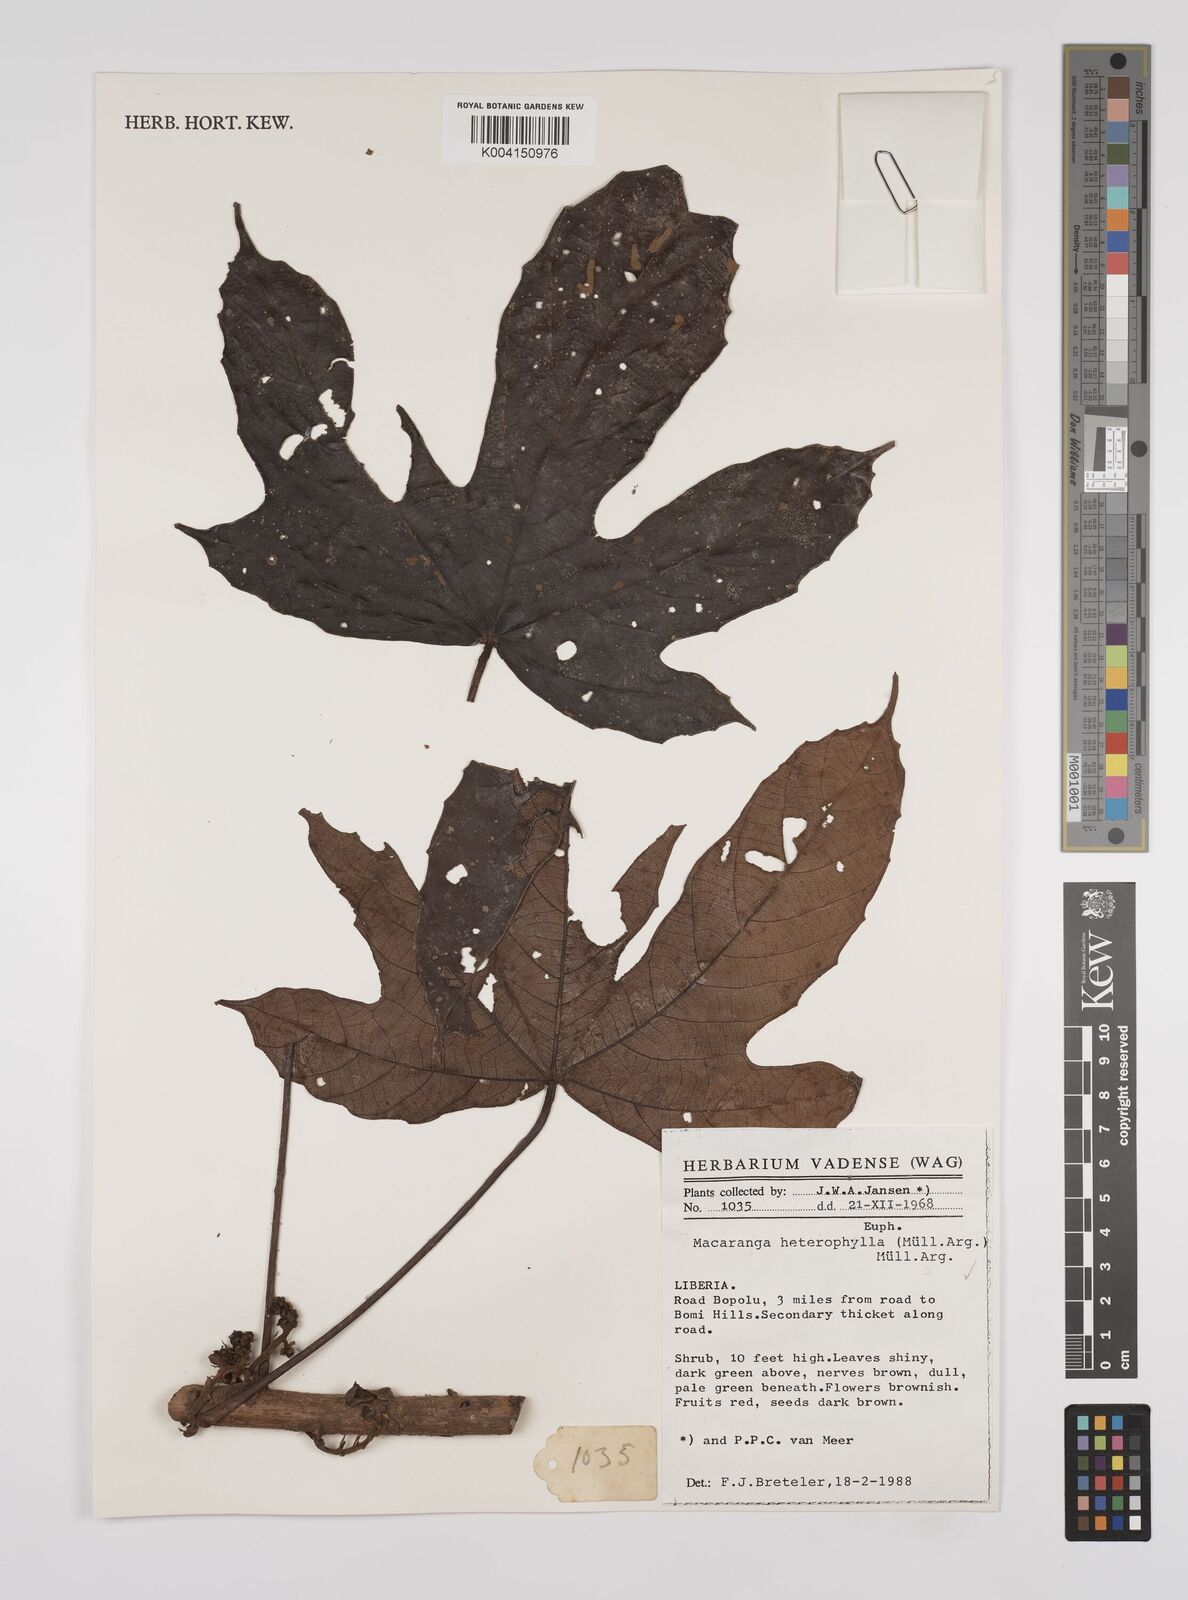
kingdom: Plantae
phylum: Tracheophyta
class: Magnoliopsida
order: Malpighiales
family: Euphorbiaceae
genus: Macaranga
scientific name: Macaranga heterophylla
